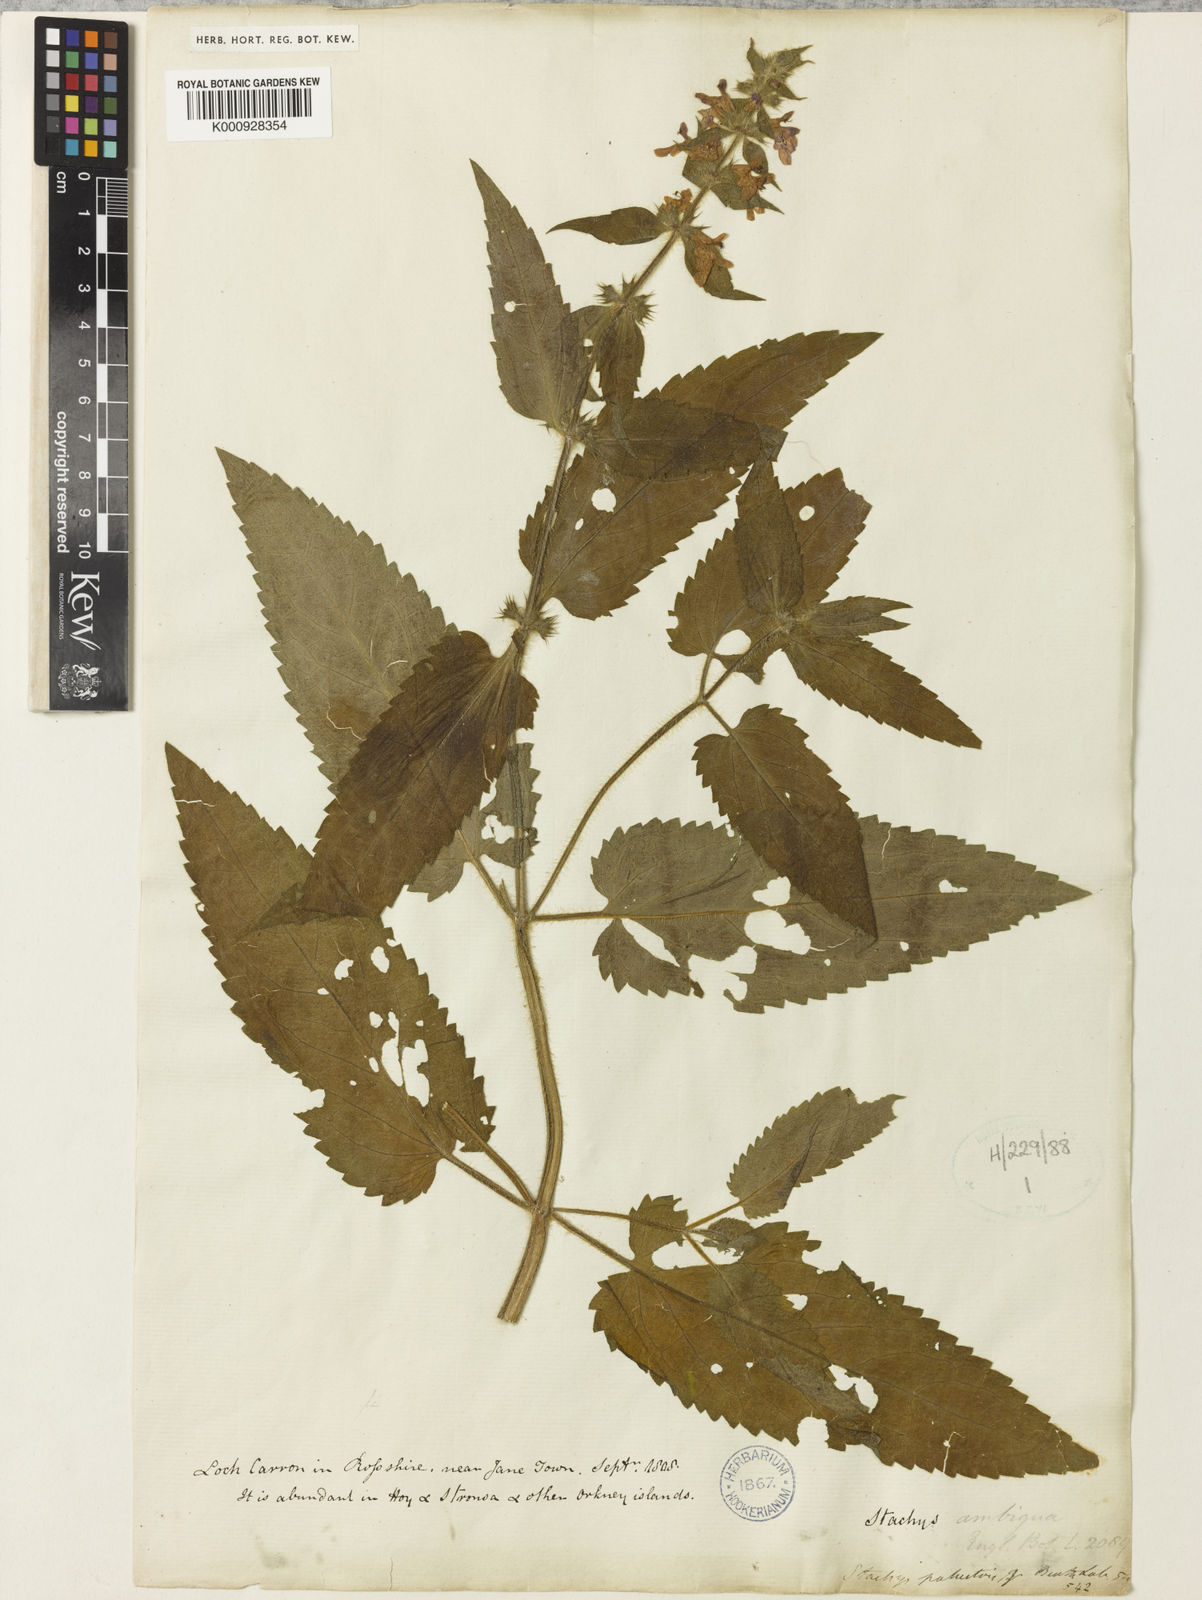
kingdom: Plantae
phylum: Tracheophyta
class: Magnoliopsida
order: Lamiales
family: Lamiaceae
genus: Stachys
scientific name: Stachys palustris
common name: Marsh woundwort
